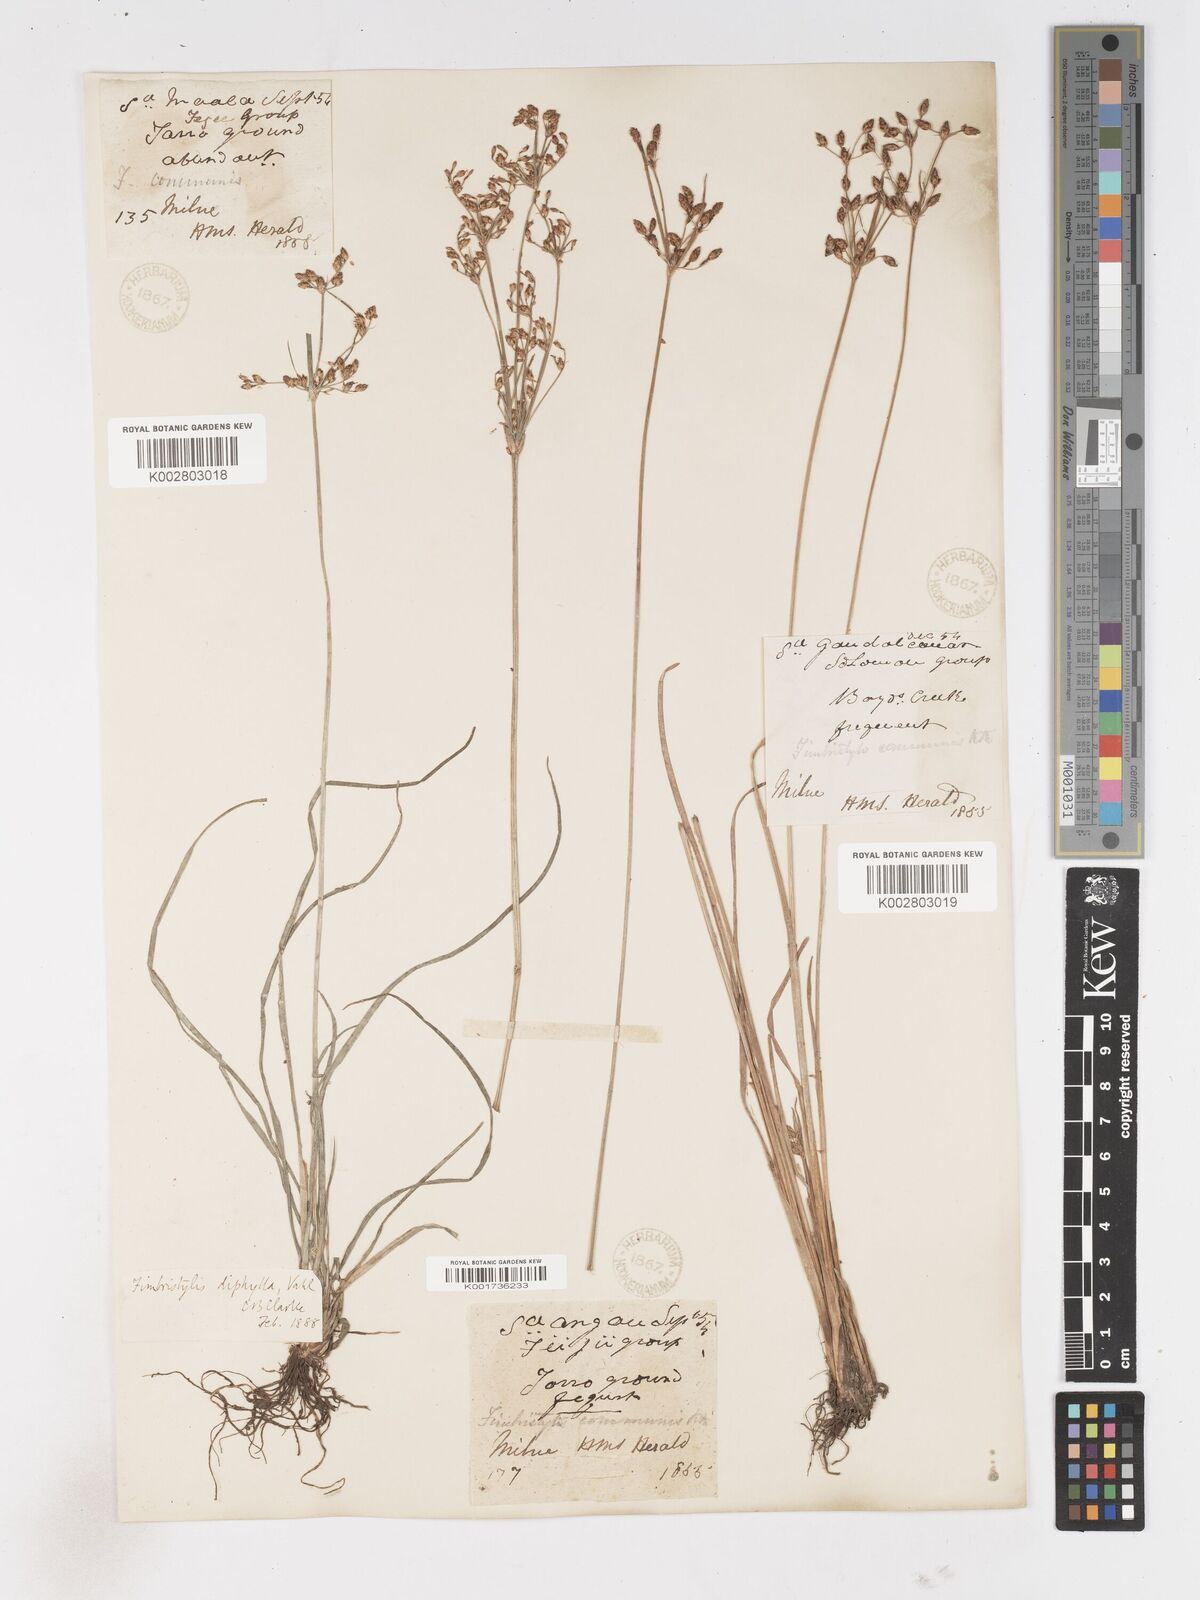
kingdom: Plantae
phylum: Tracheophyta
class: Liliopsida
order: Poales
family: Cyperaceae
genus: Fimbristylis
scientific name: Fimbristylis dichotoma
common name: Forked fimbry
